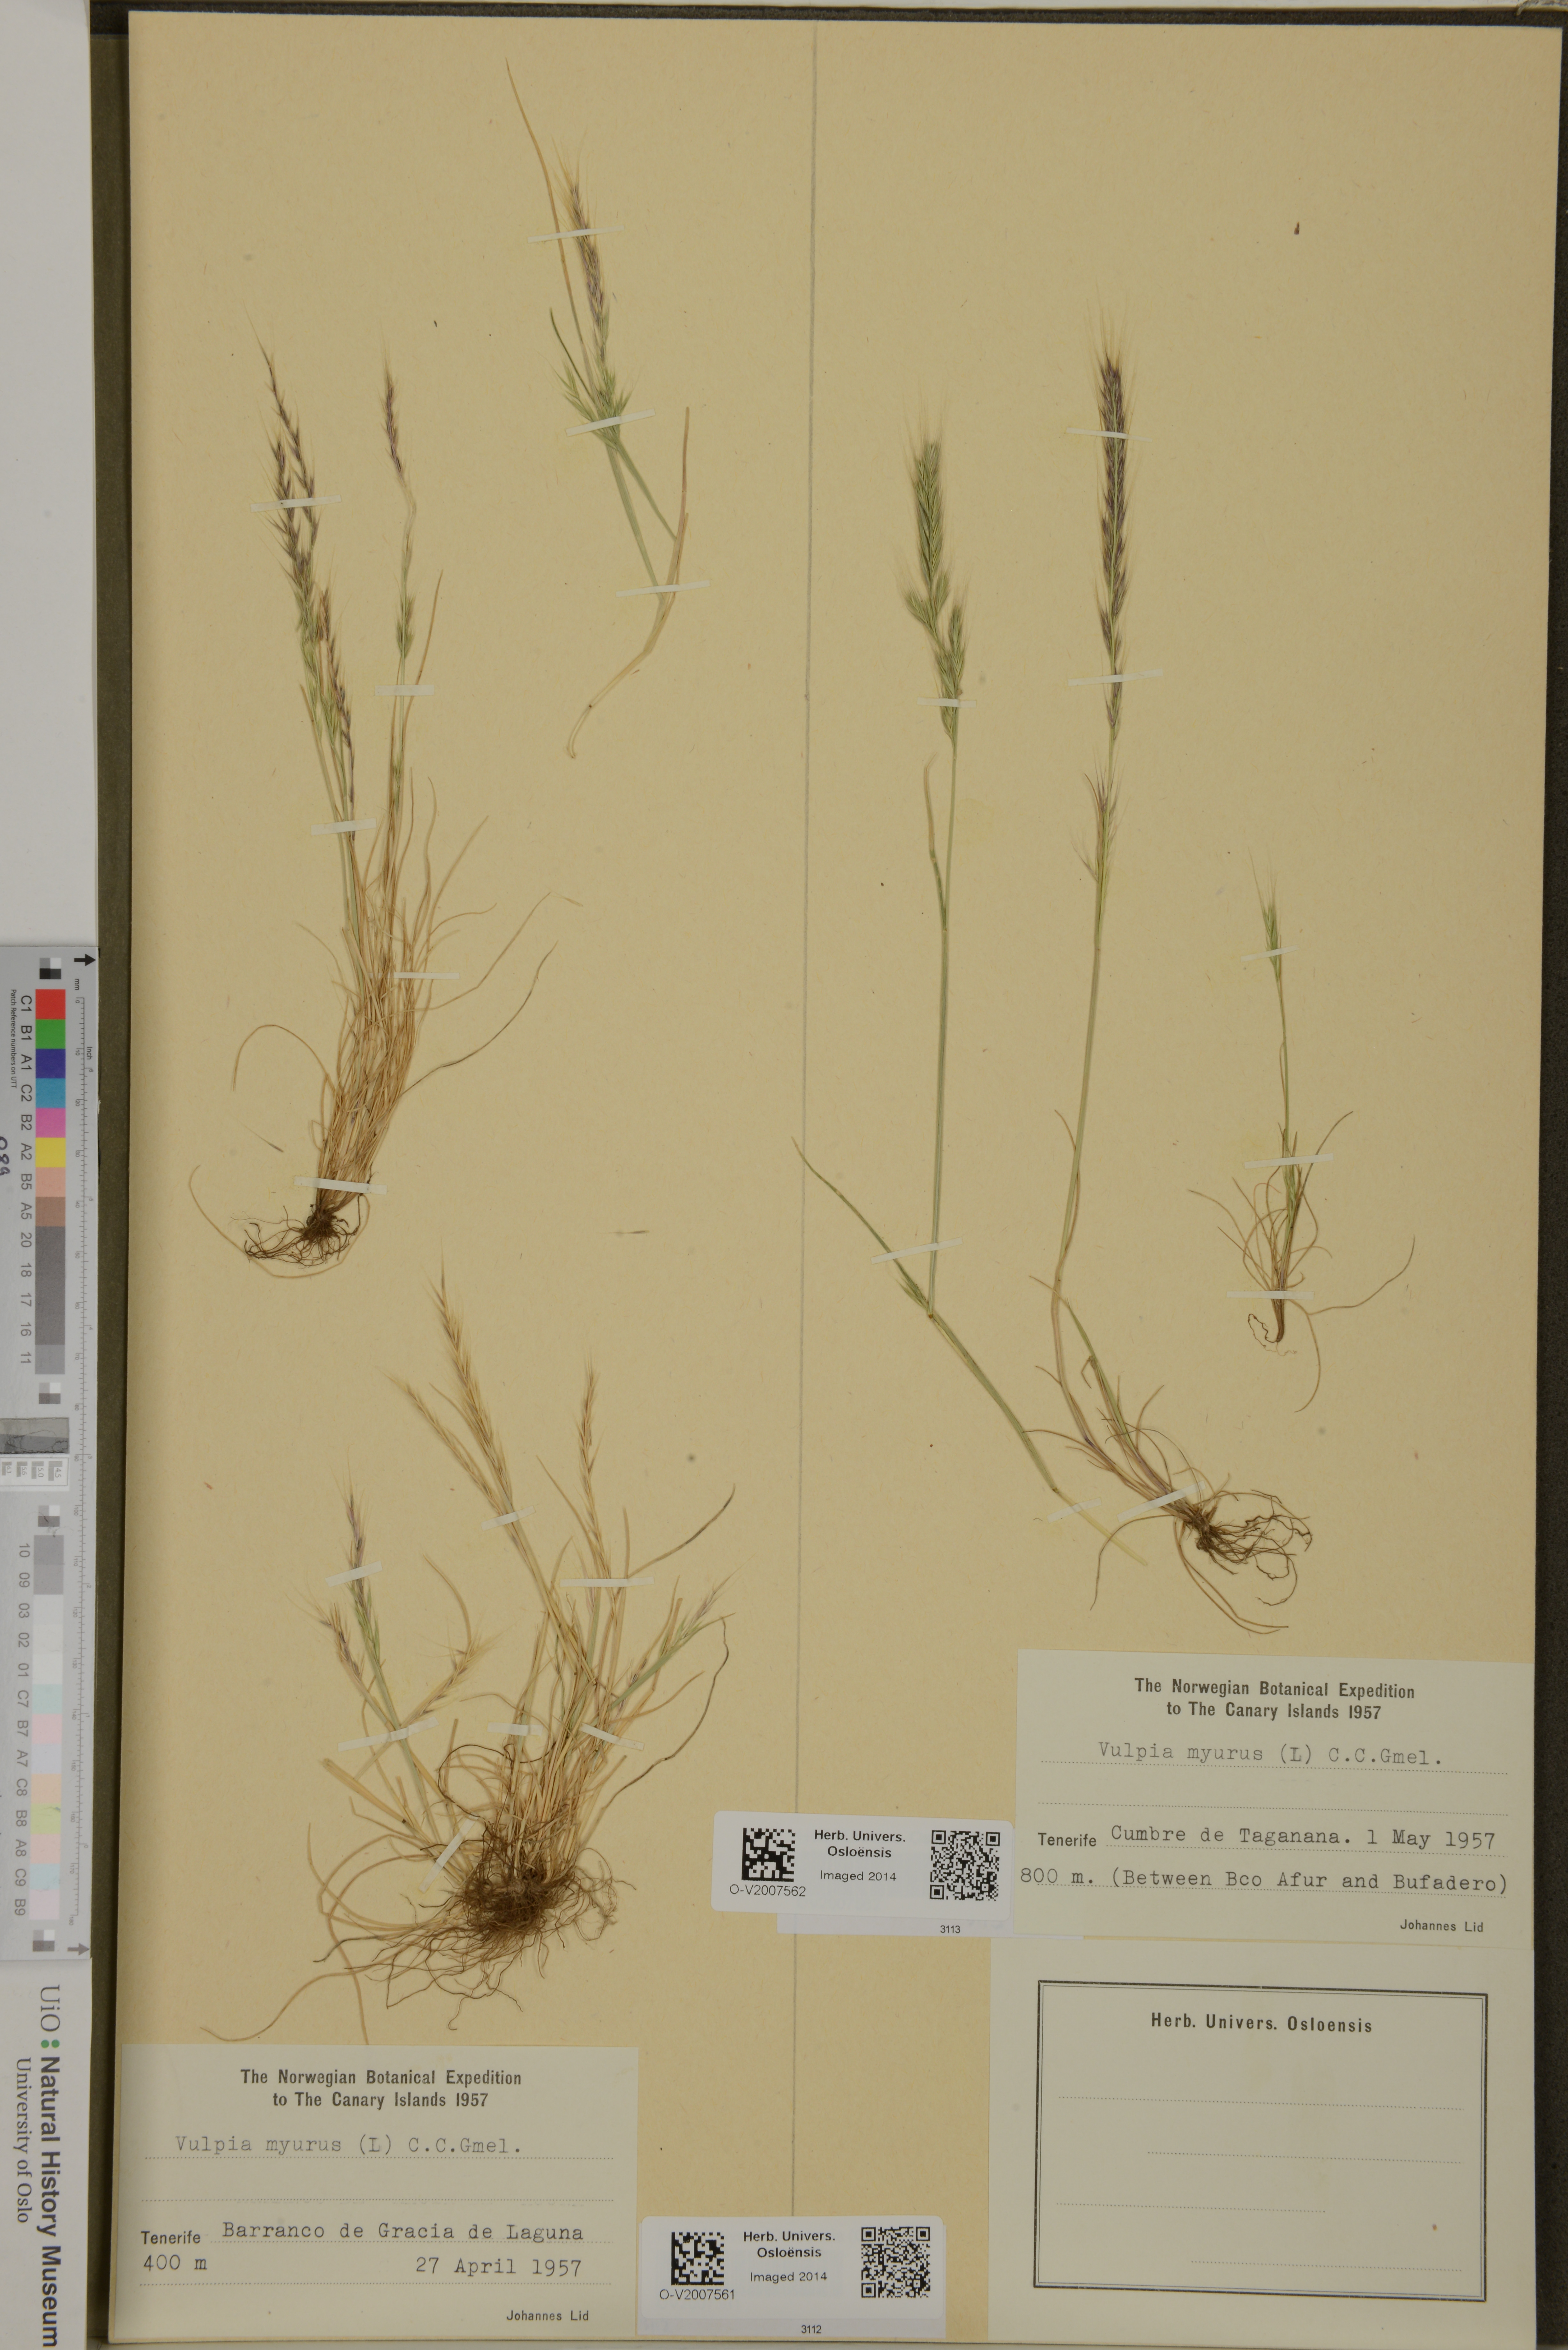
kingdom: Plantae
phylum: Tracheophyta
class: Liliopsida
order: Poales
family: Poaceae
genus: Festuca
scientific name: Festuca myuros
